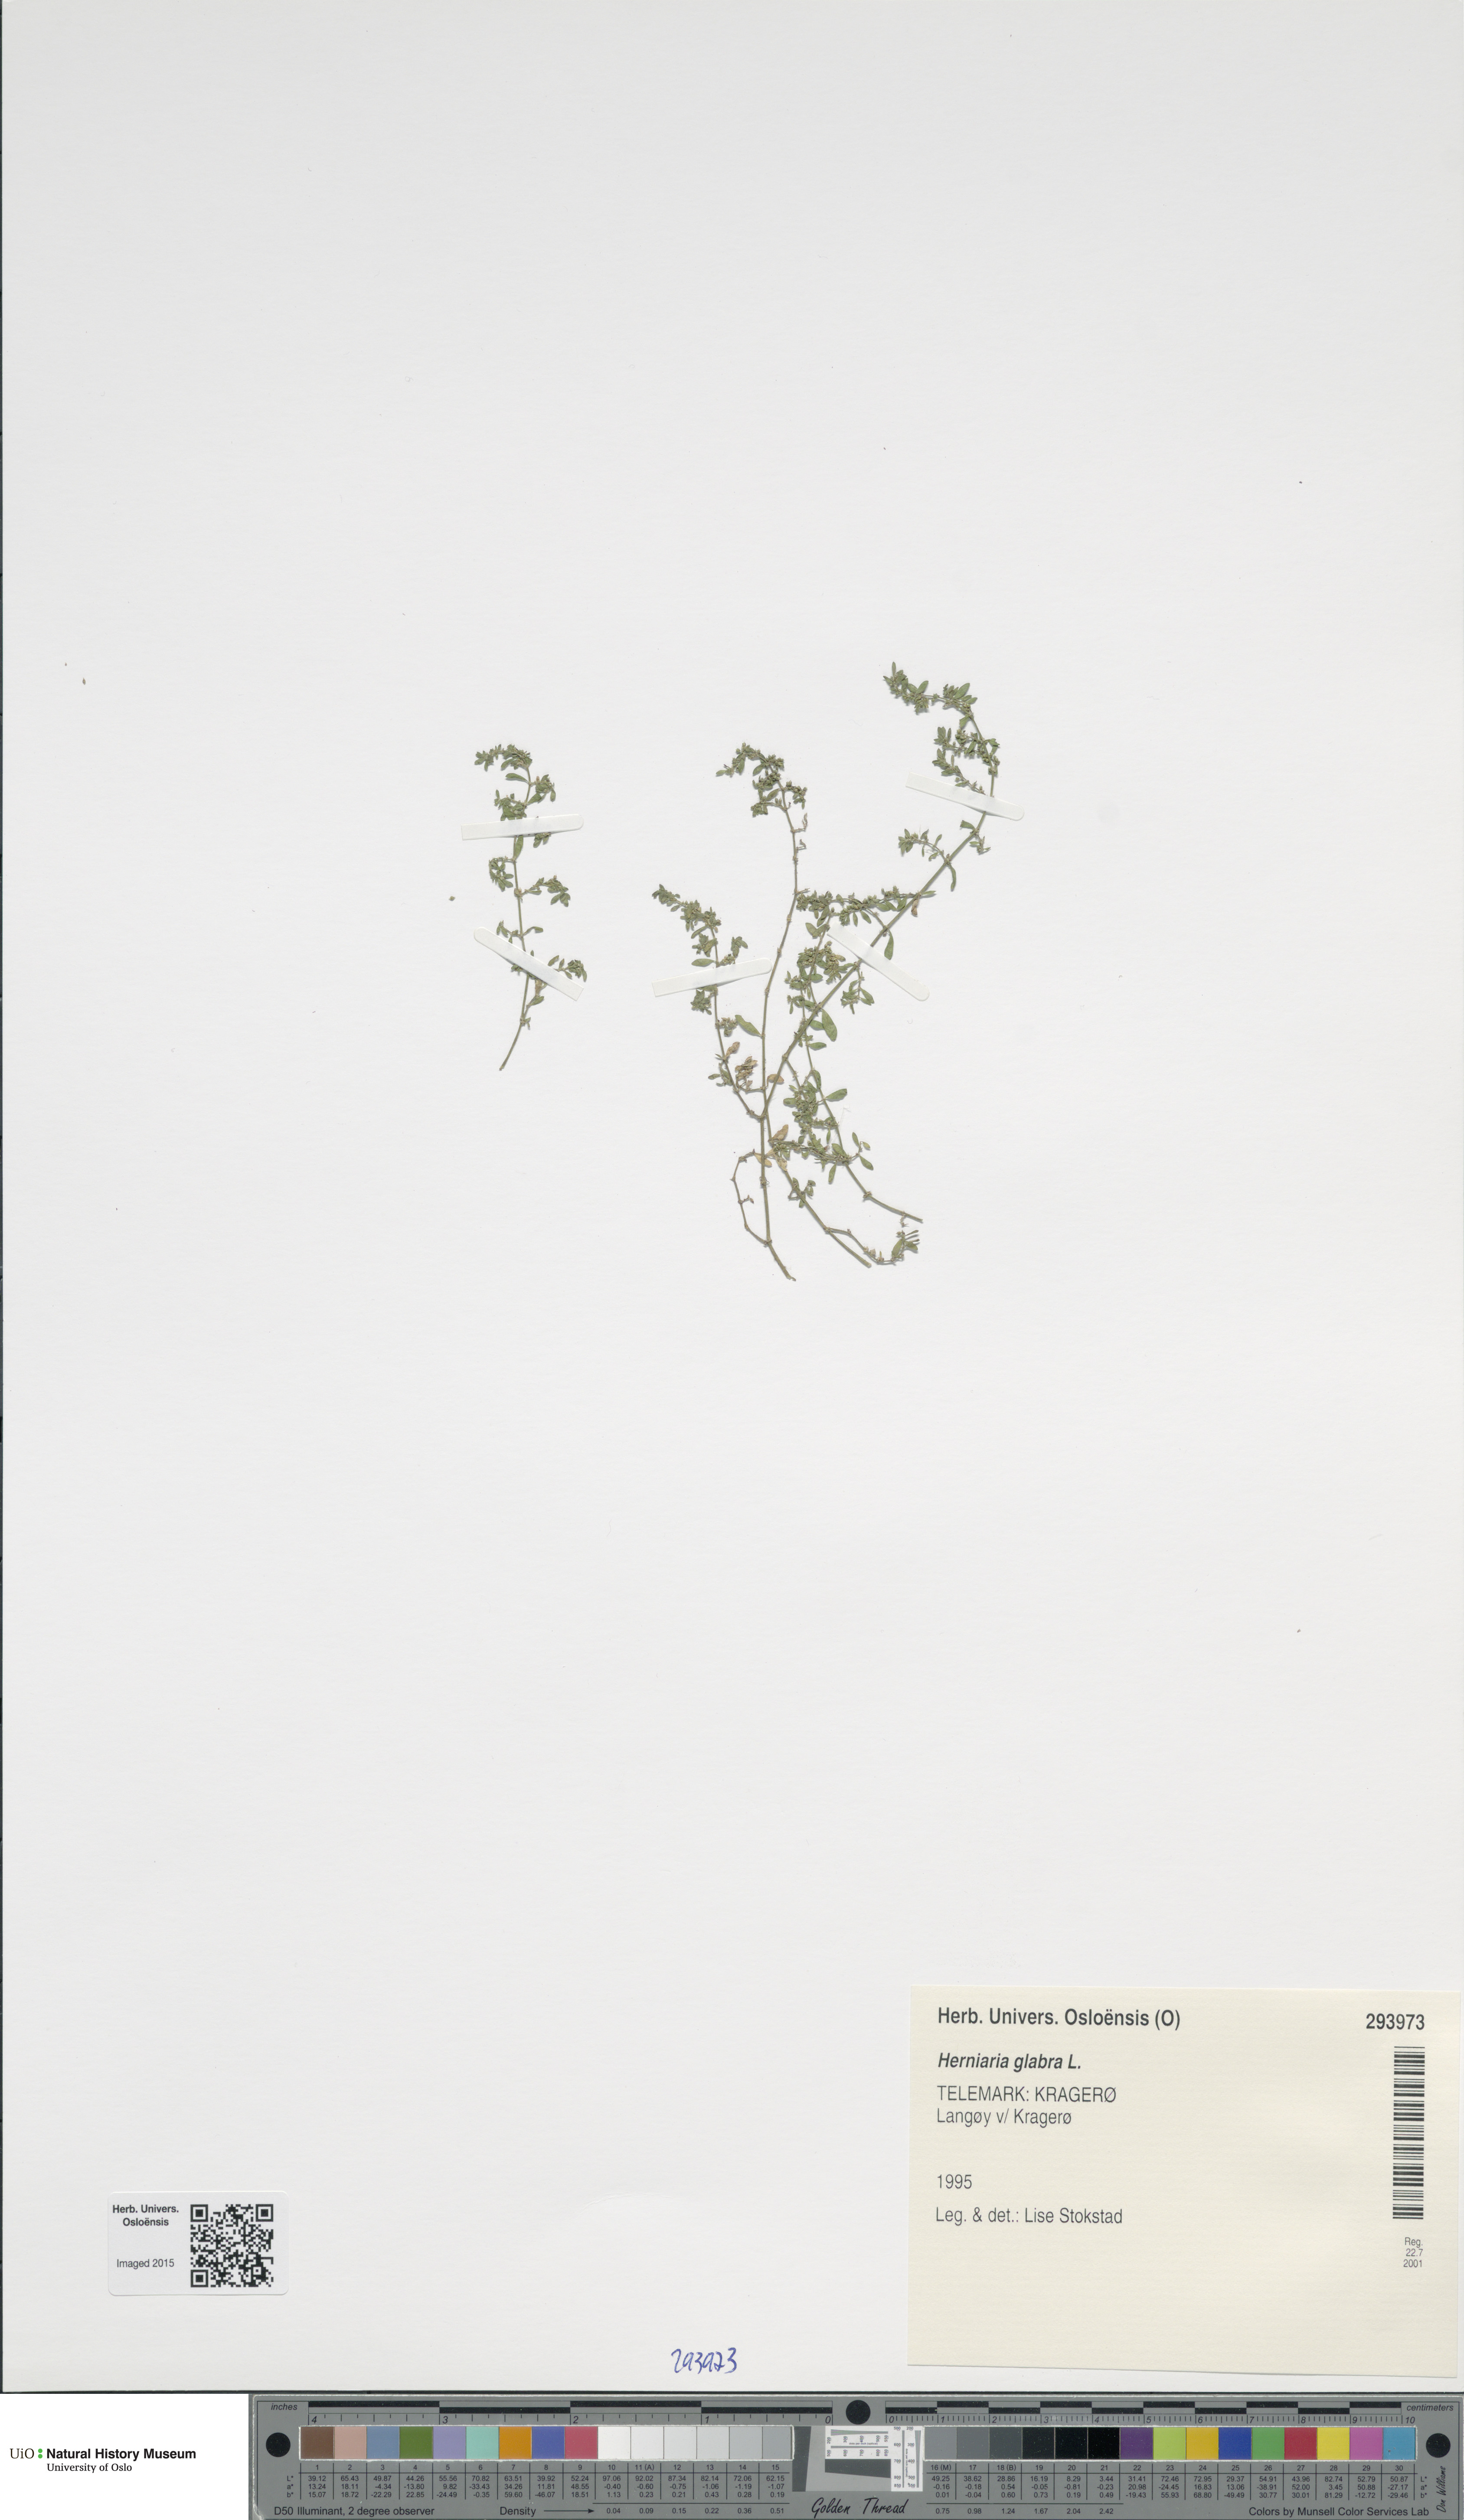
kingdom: Plantae
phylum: Tracheophyta
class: Magnoliopsida
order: Caryophyllales
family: Caryophyllaceae
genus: Herniaria
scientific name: Herniaria glabra
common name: Smooth rupturewort
